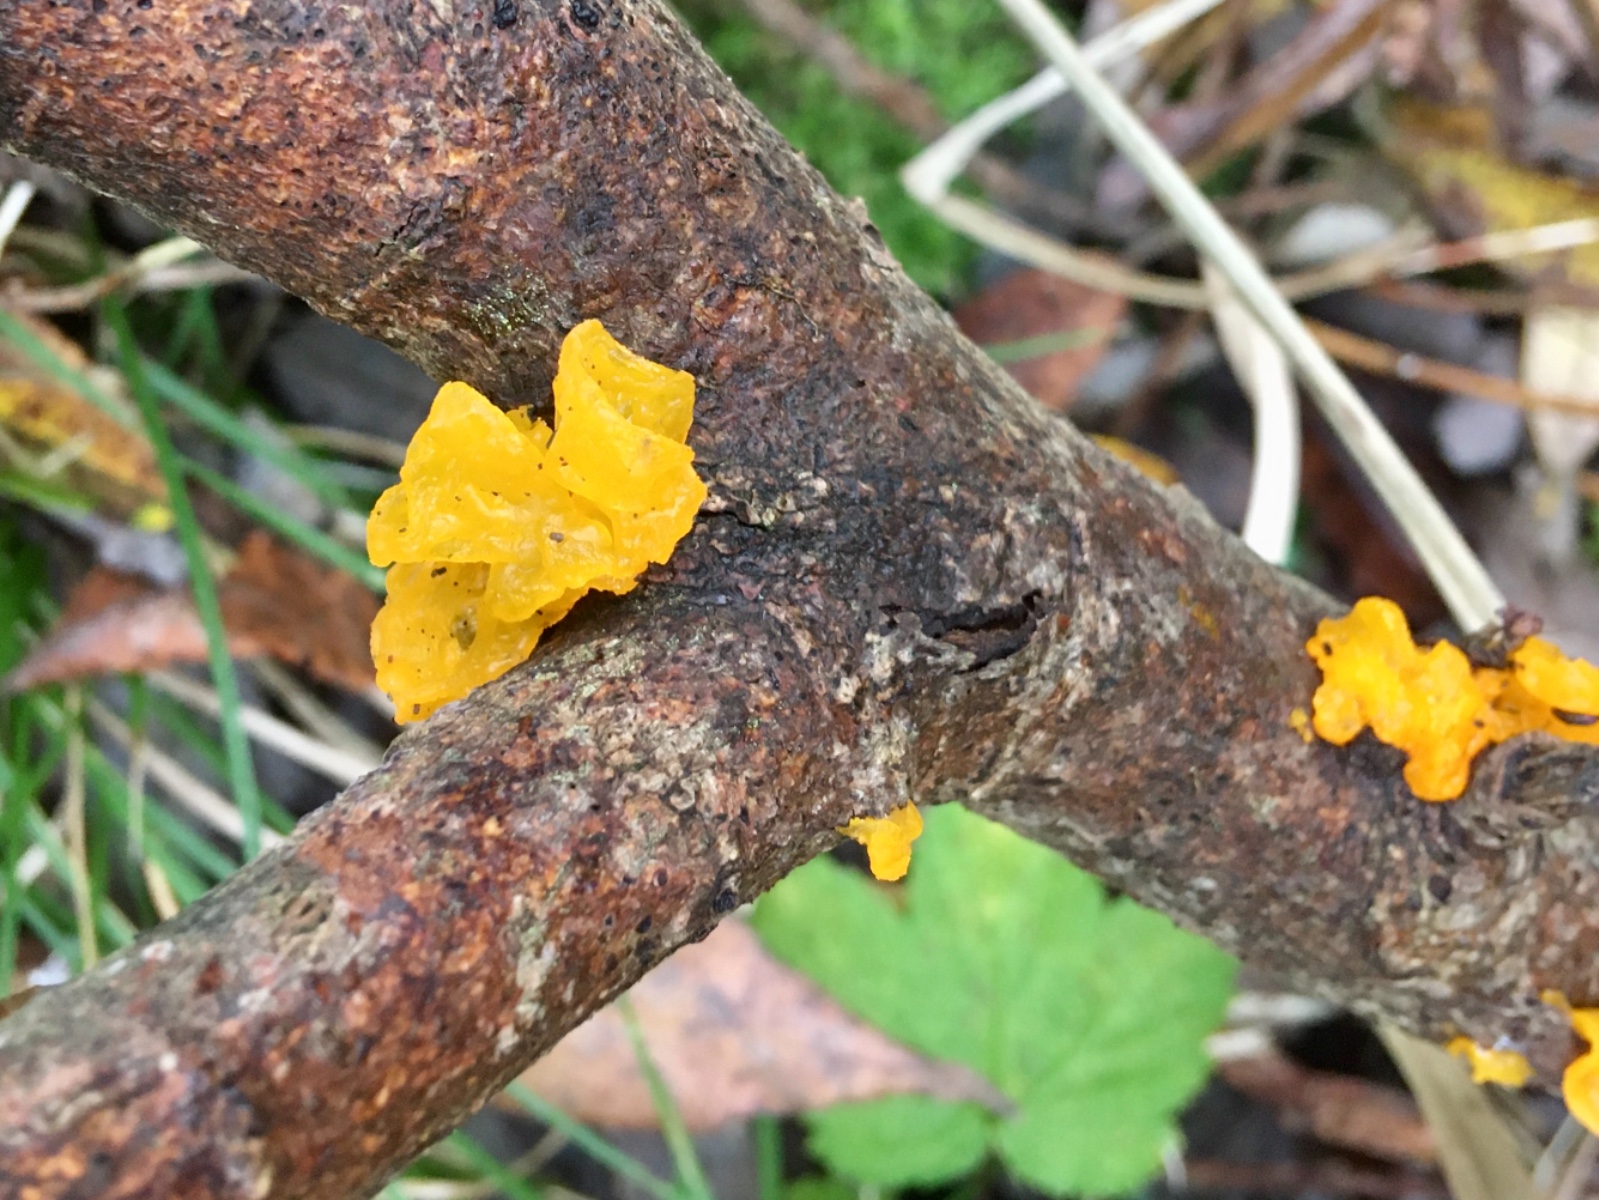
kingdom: Fungi
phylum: Basidiomycota
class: Tremellomycetes
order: Tremellales
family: Tremellaceae
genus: Tremella
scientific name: Tremella mesenterica
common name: gul bævresvamp
